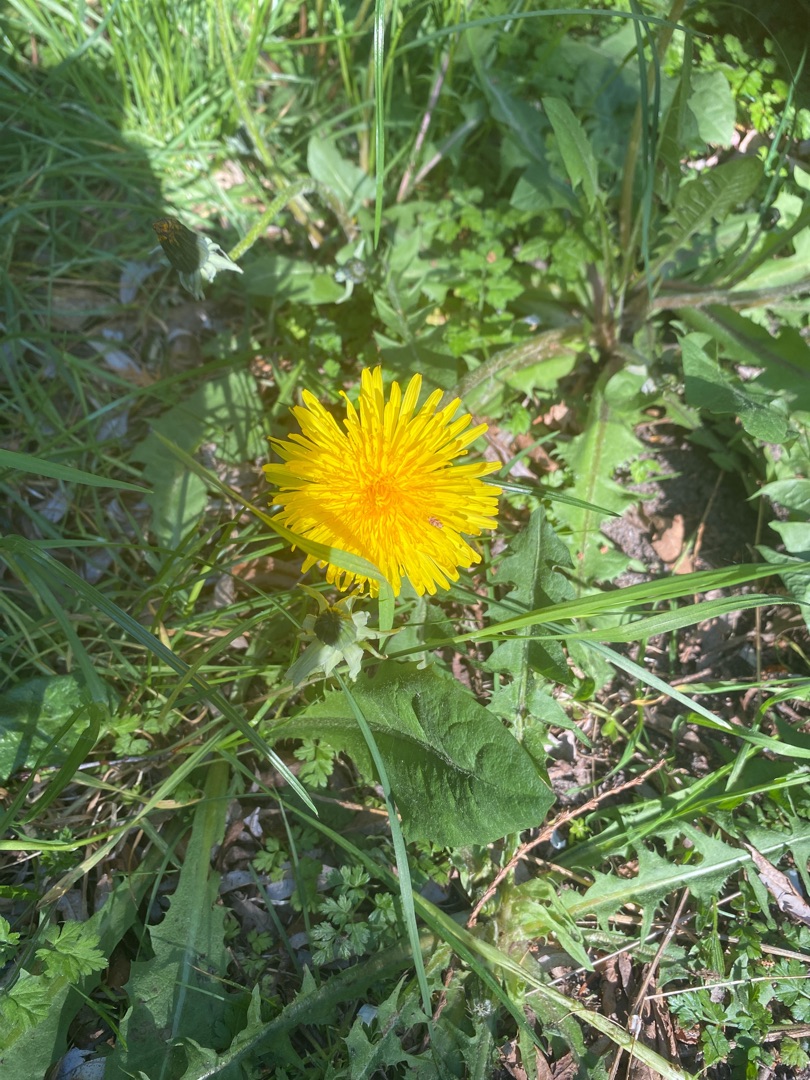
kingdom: Plantae
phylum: Tracheophyta
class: Magnoliopsida
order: Asterales
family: Asteraceae
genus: Taraxacum
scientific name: Taraxacum
